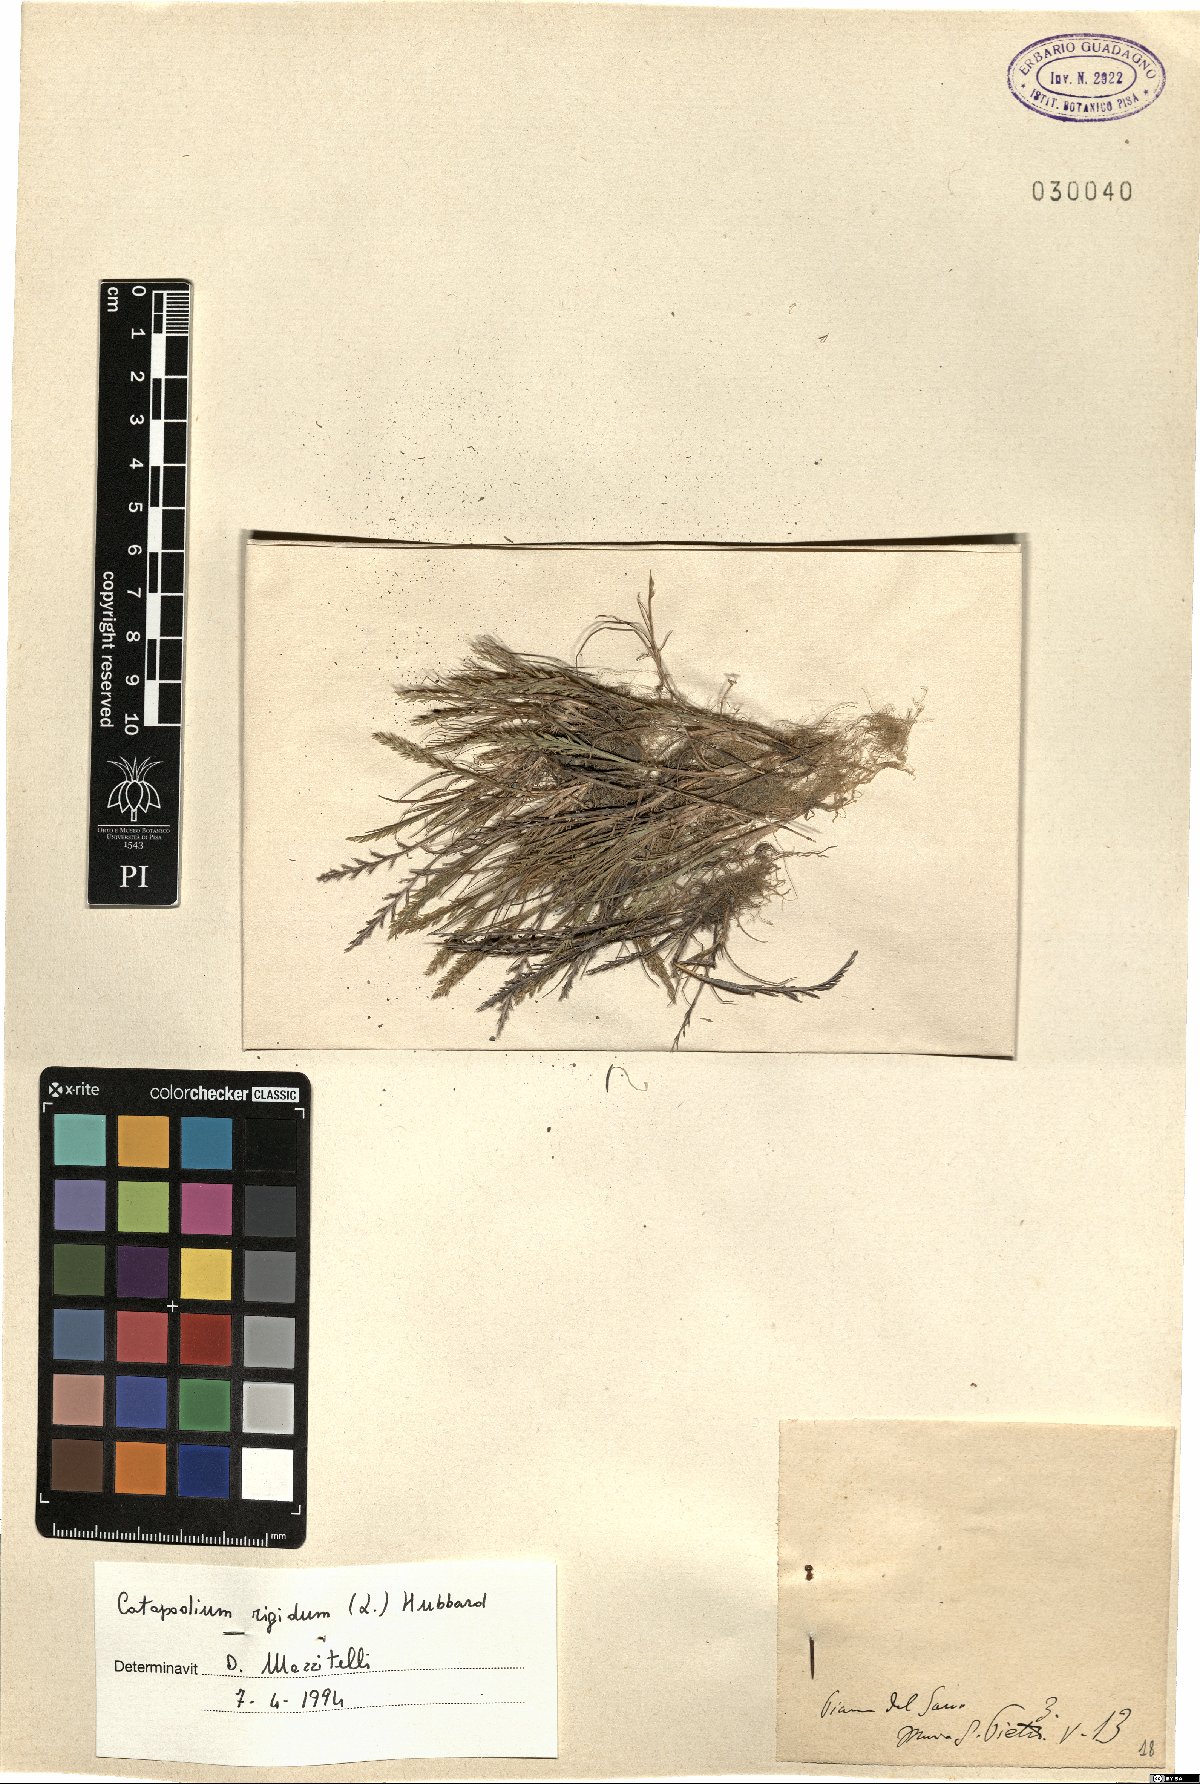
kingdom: Plantae
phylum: Tracheophyta
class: Liliopsida
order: Poales
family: Poaceae
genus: Catapodium
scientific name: Catapodium rigidum
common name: Fern-grass
